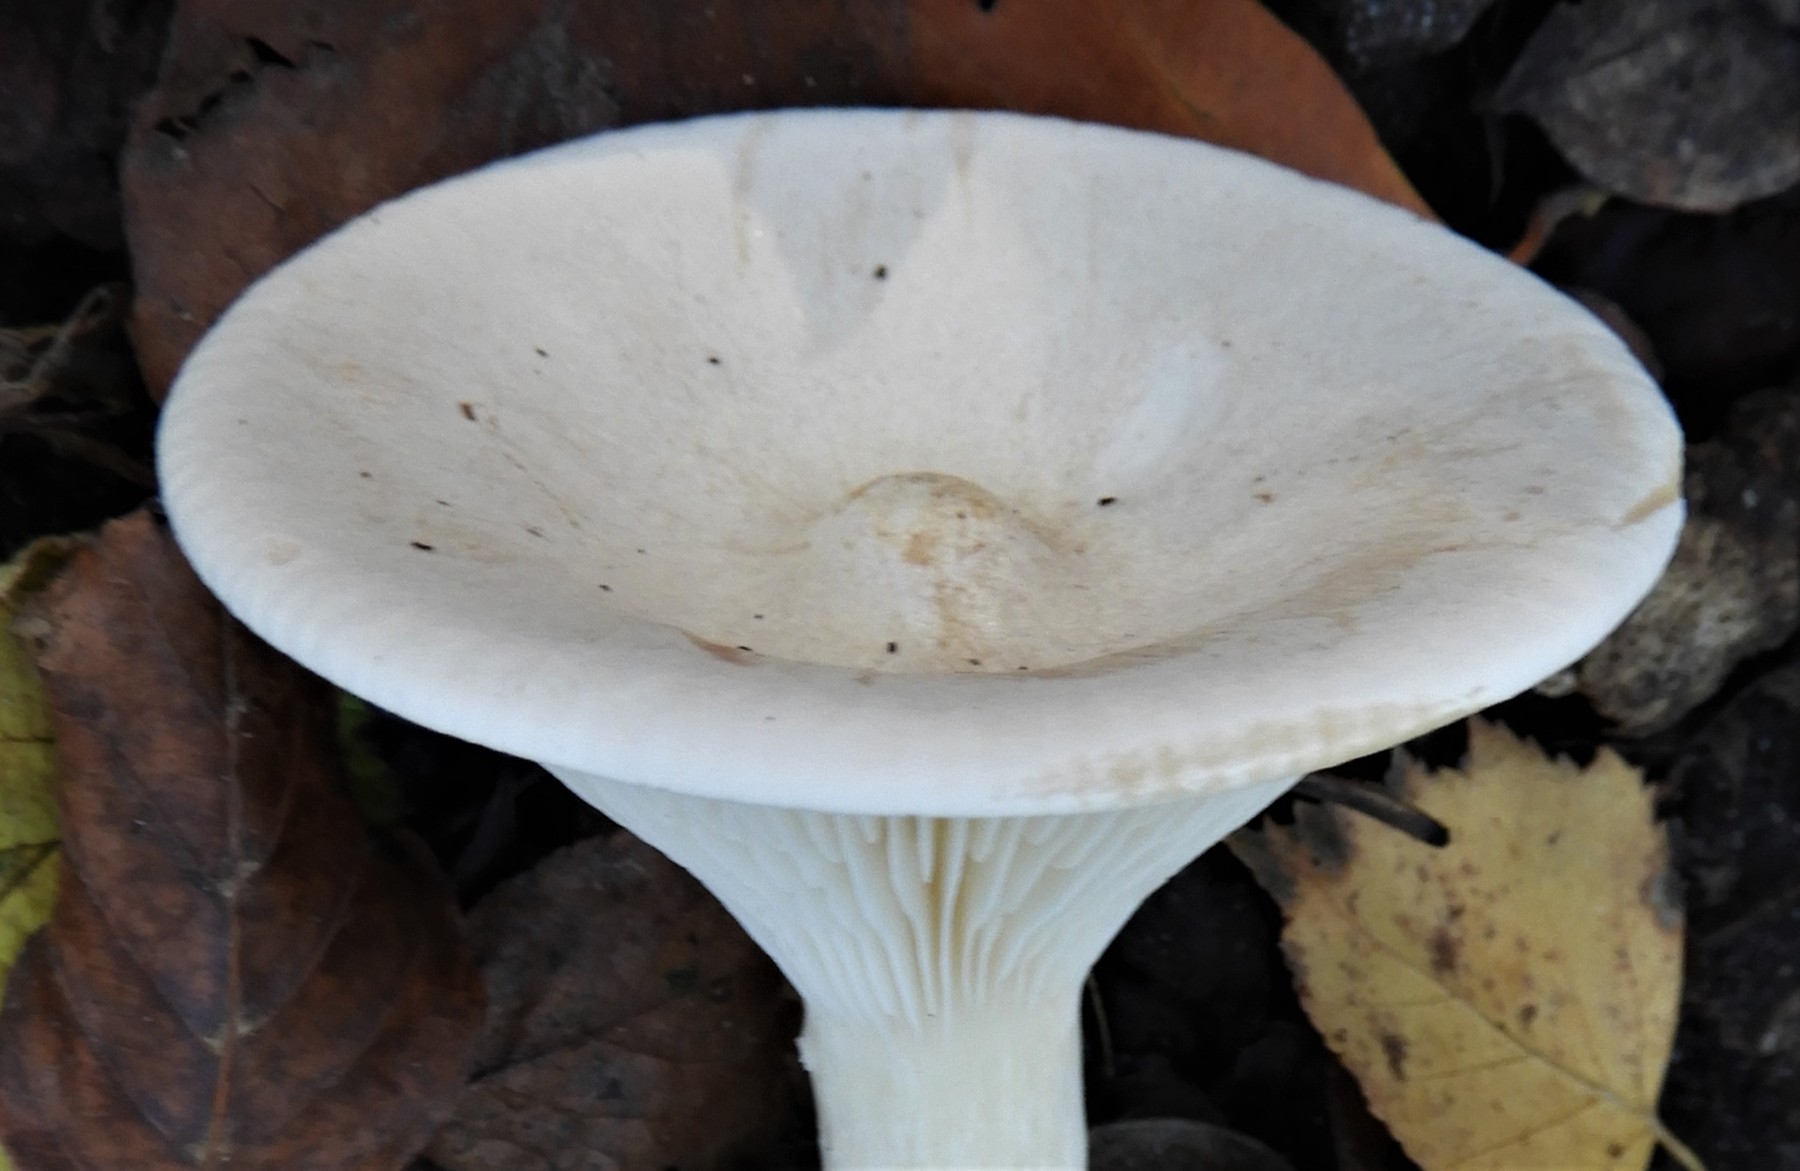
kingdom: Fungi
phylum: Basidiomycota
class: Agaricomycetes
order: Agaricales
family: Tricholomataceae
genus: Infundibulicybe
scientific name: Infundibulicybe geotropa
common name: stor tragthat
